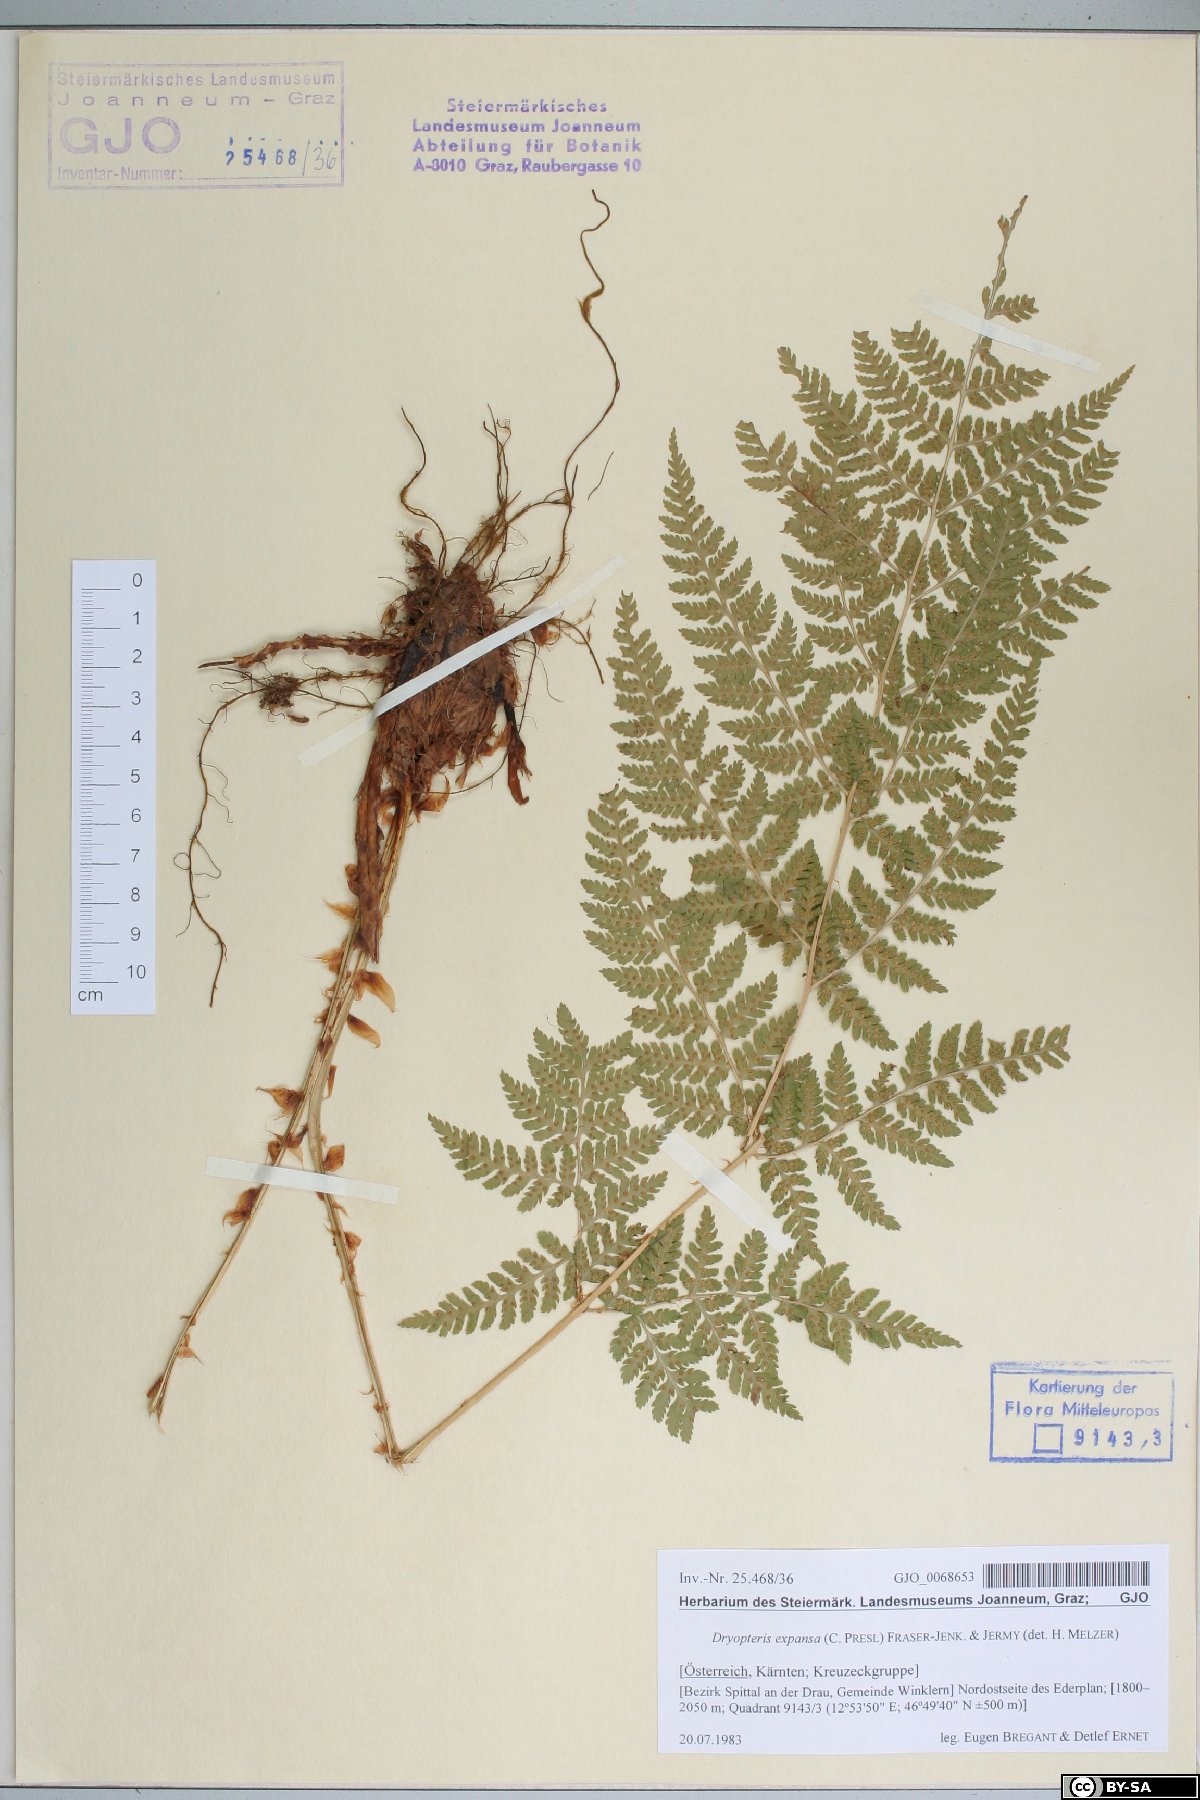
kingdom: Plantae
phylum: Tracheophyta
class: Polypodiopsida
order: Polypodiales
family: Dryopteridaceae
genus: Dryopteris
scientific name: Dryopteris expansa
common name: Northern buckler fern
